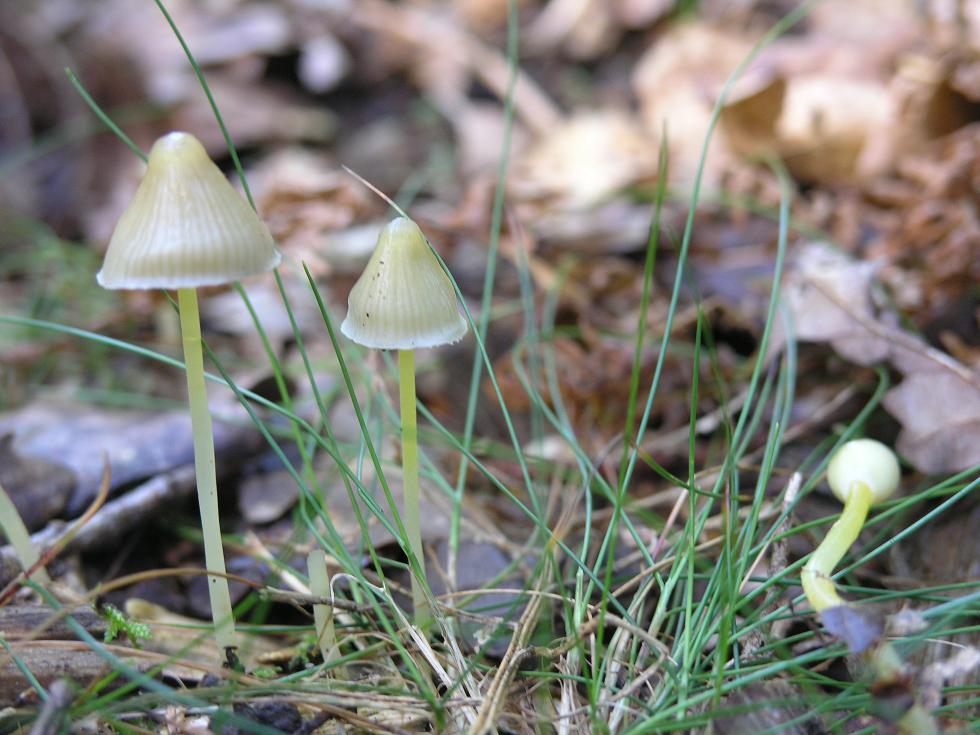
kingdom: Fungi
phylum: Basidiomycota
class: Agaricomycetes
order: Agaricales
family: Mycenaceae
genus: Mycena
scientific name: Mycena epipterygia
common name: gulstokket huesvamp
